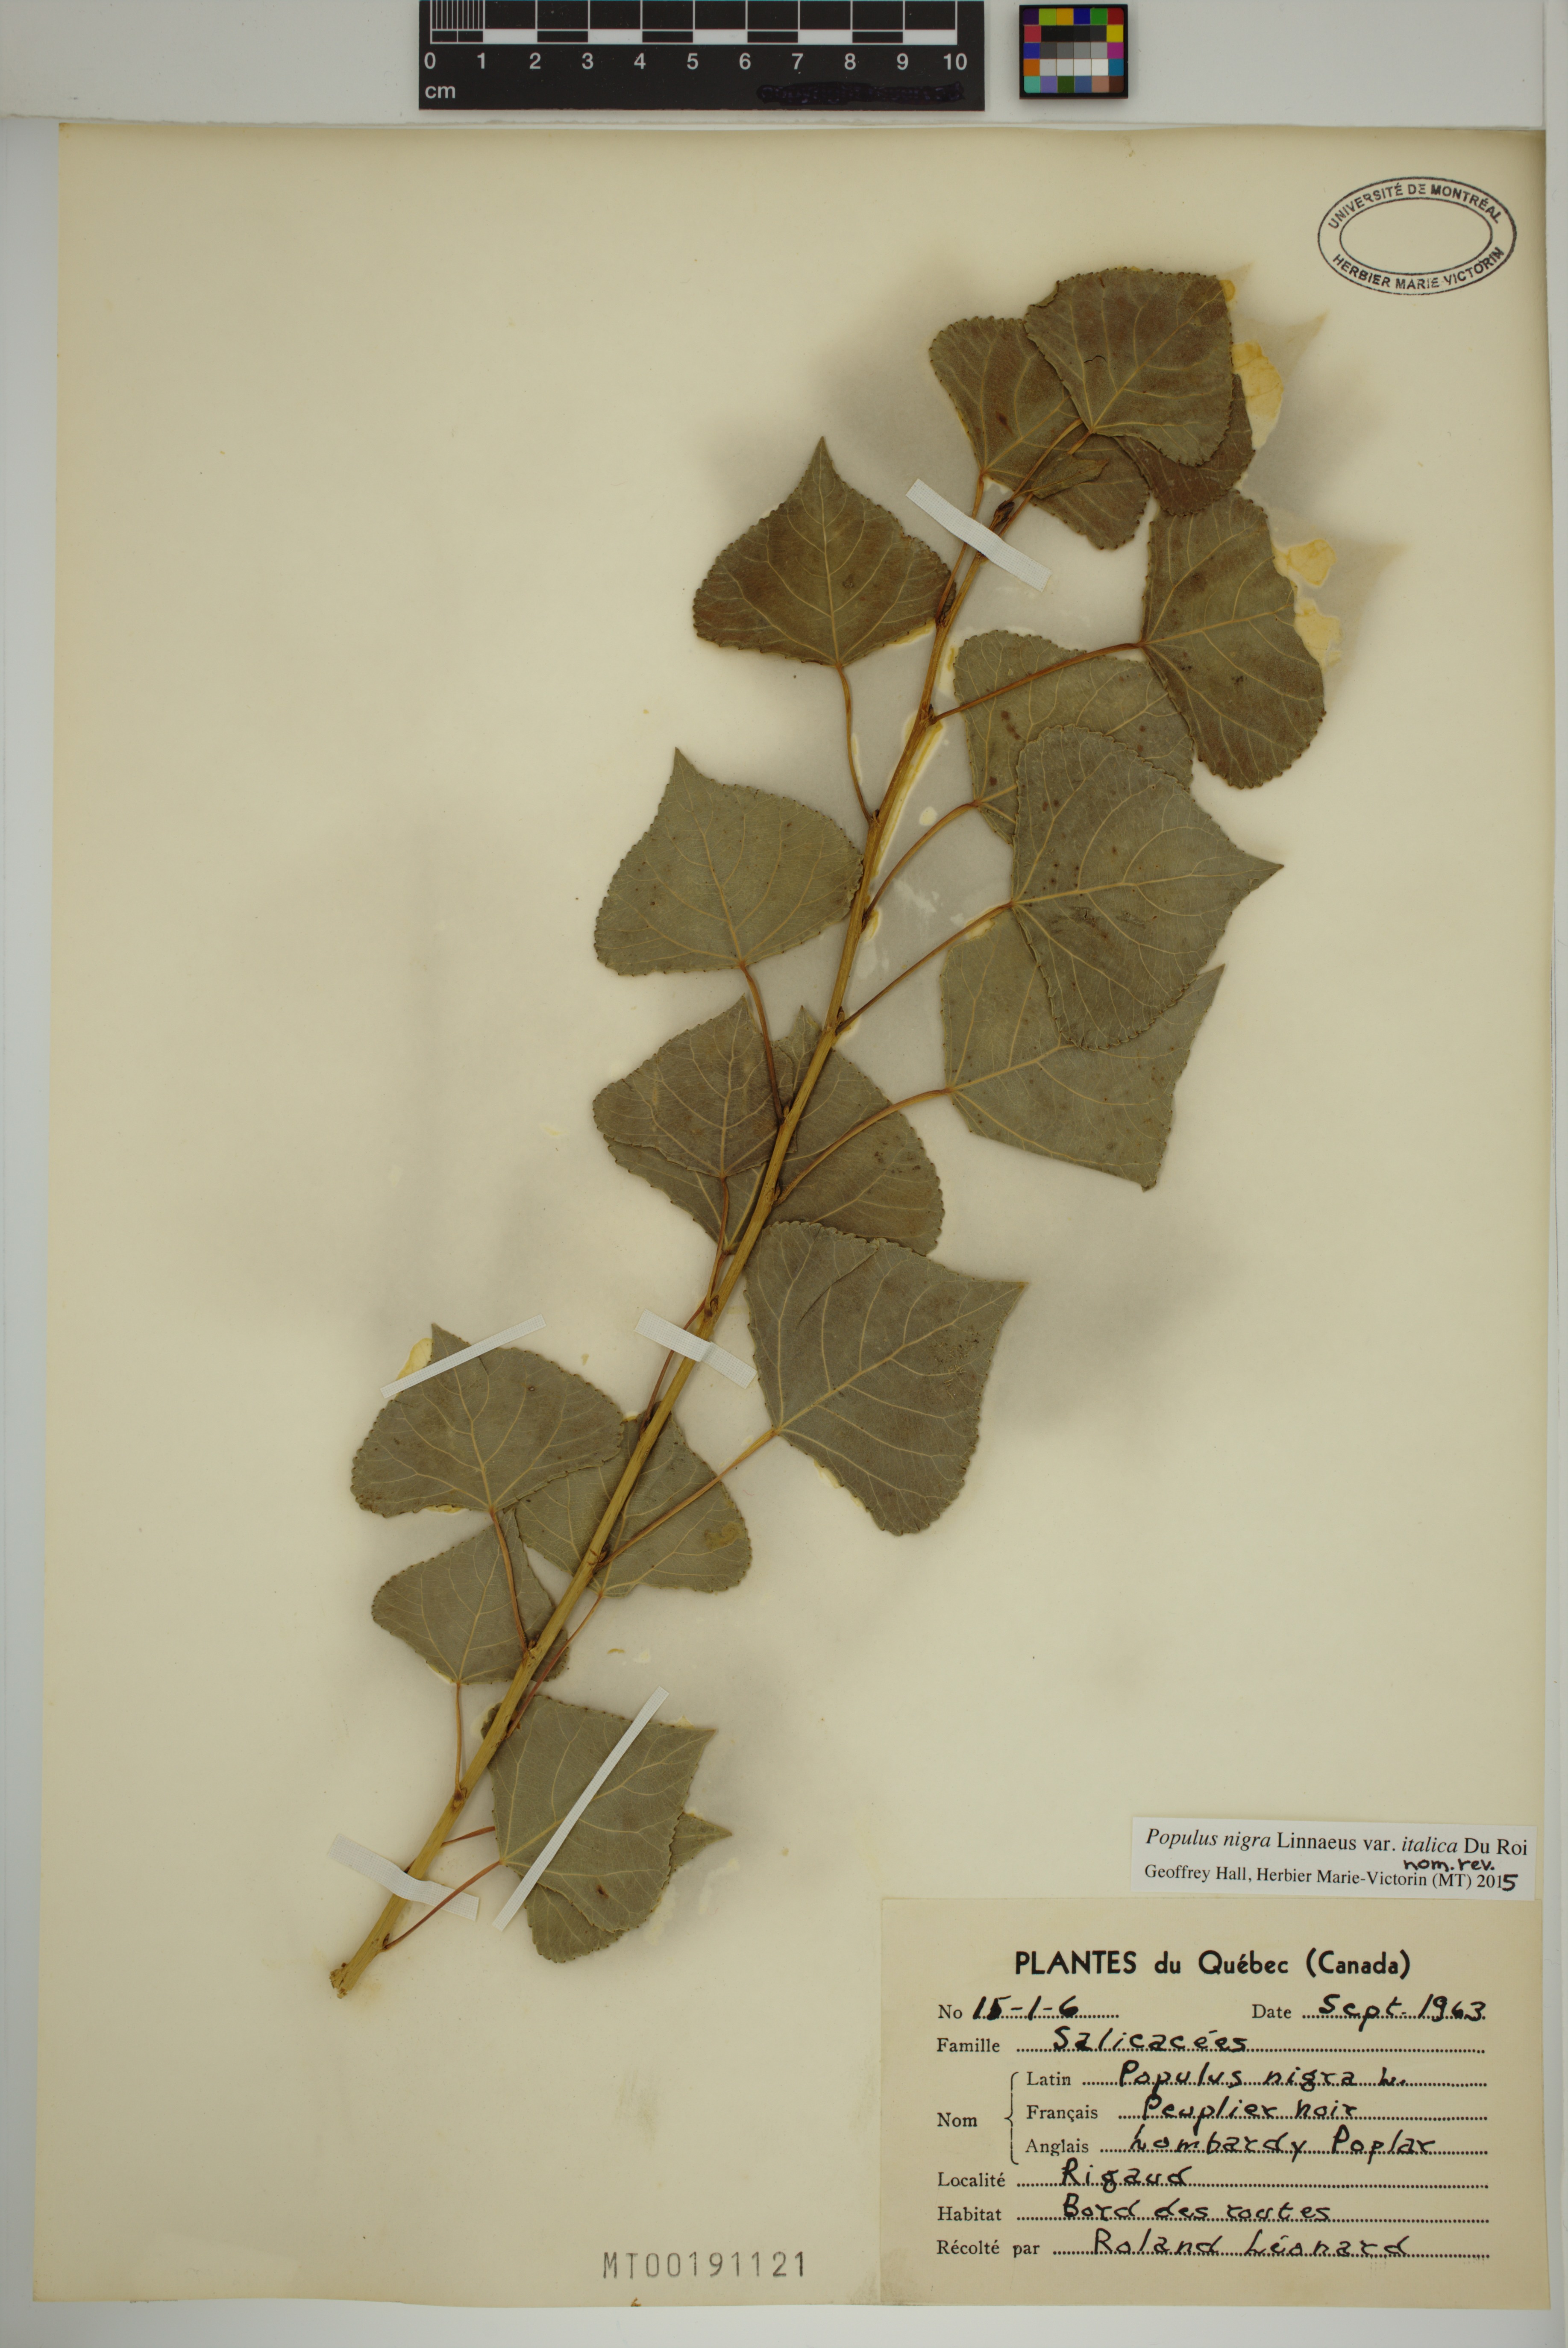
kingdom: Plantae
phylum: Tracheophyta
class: Magnoliopsida
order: Malpighiales
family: Salicaceae
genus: Populus
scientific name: Populus nigra
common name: Black poplar
